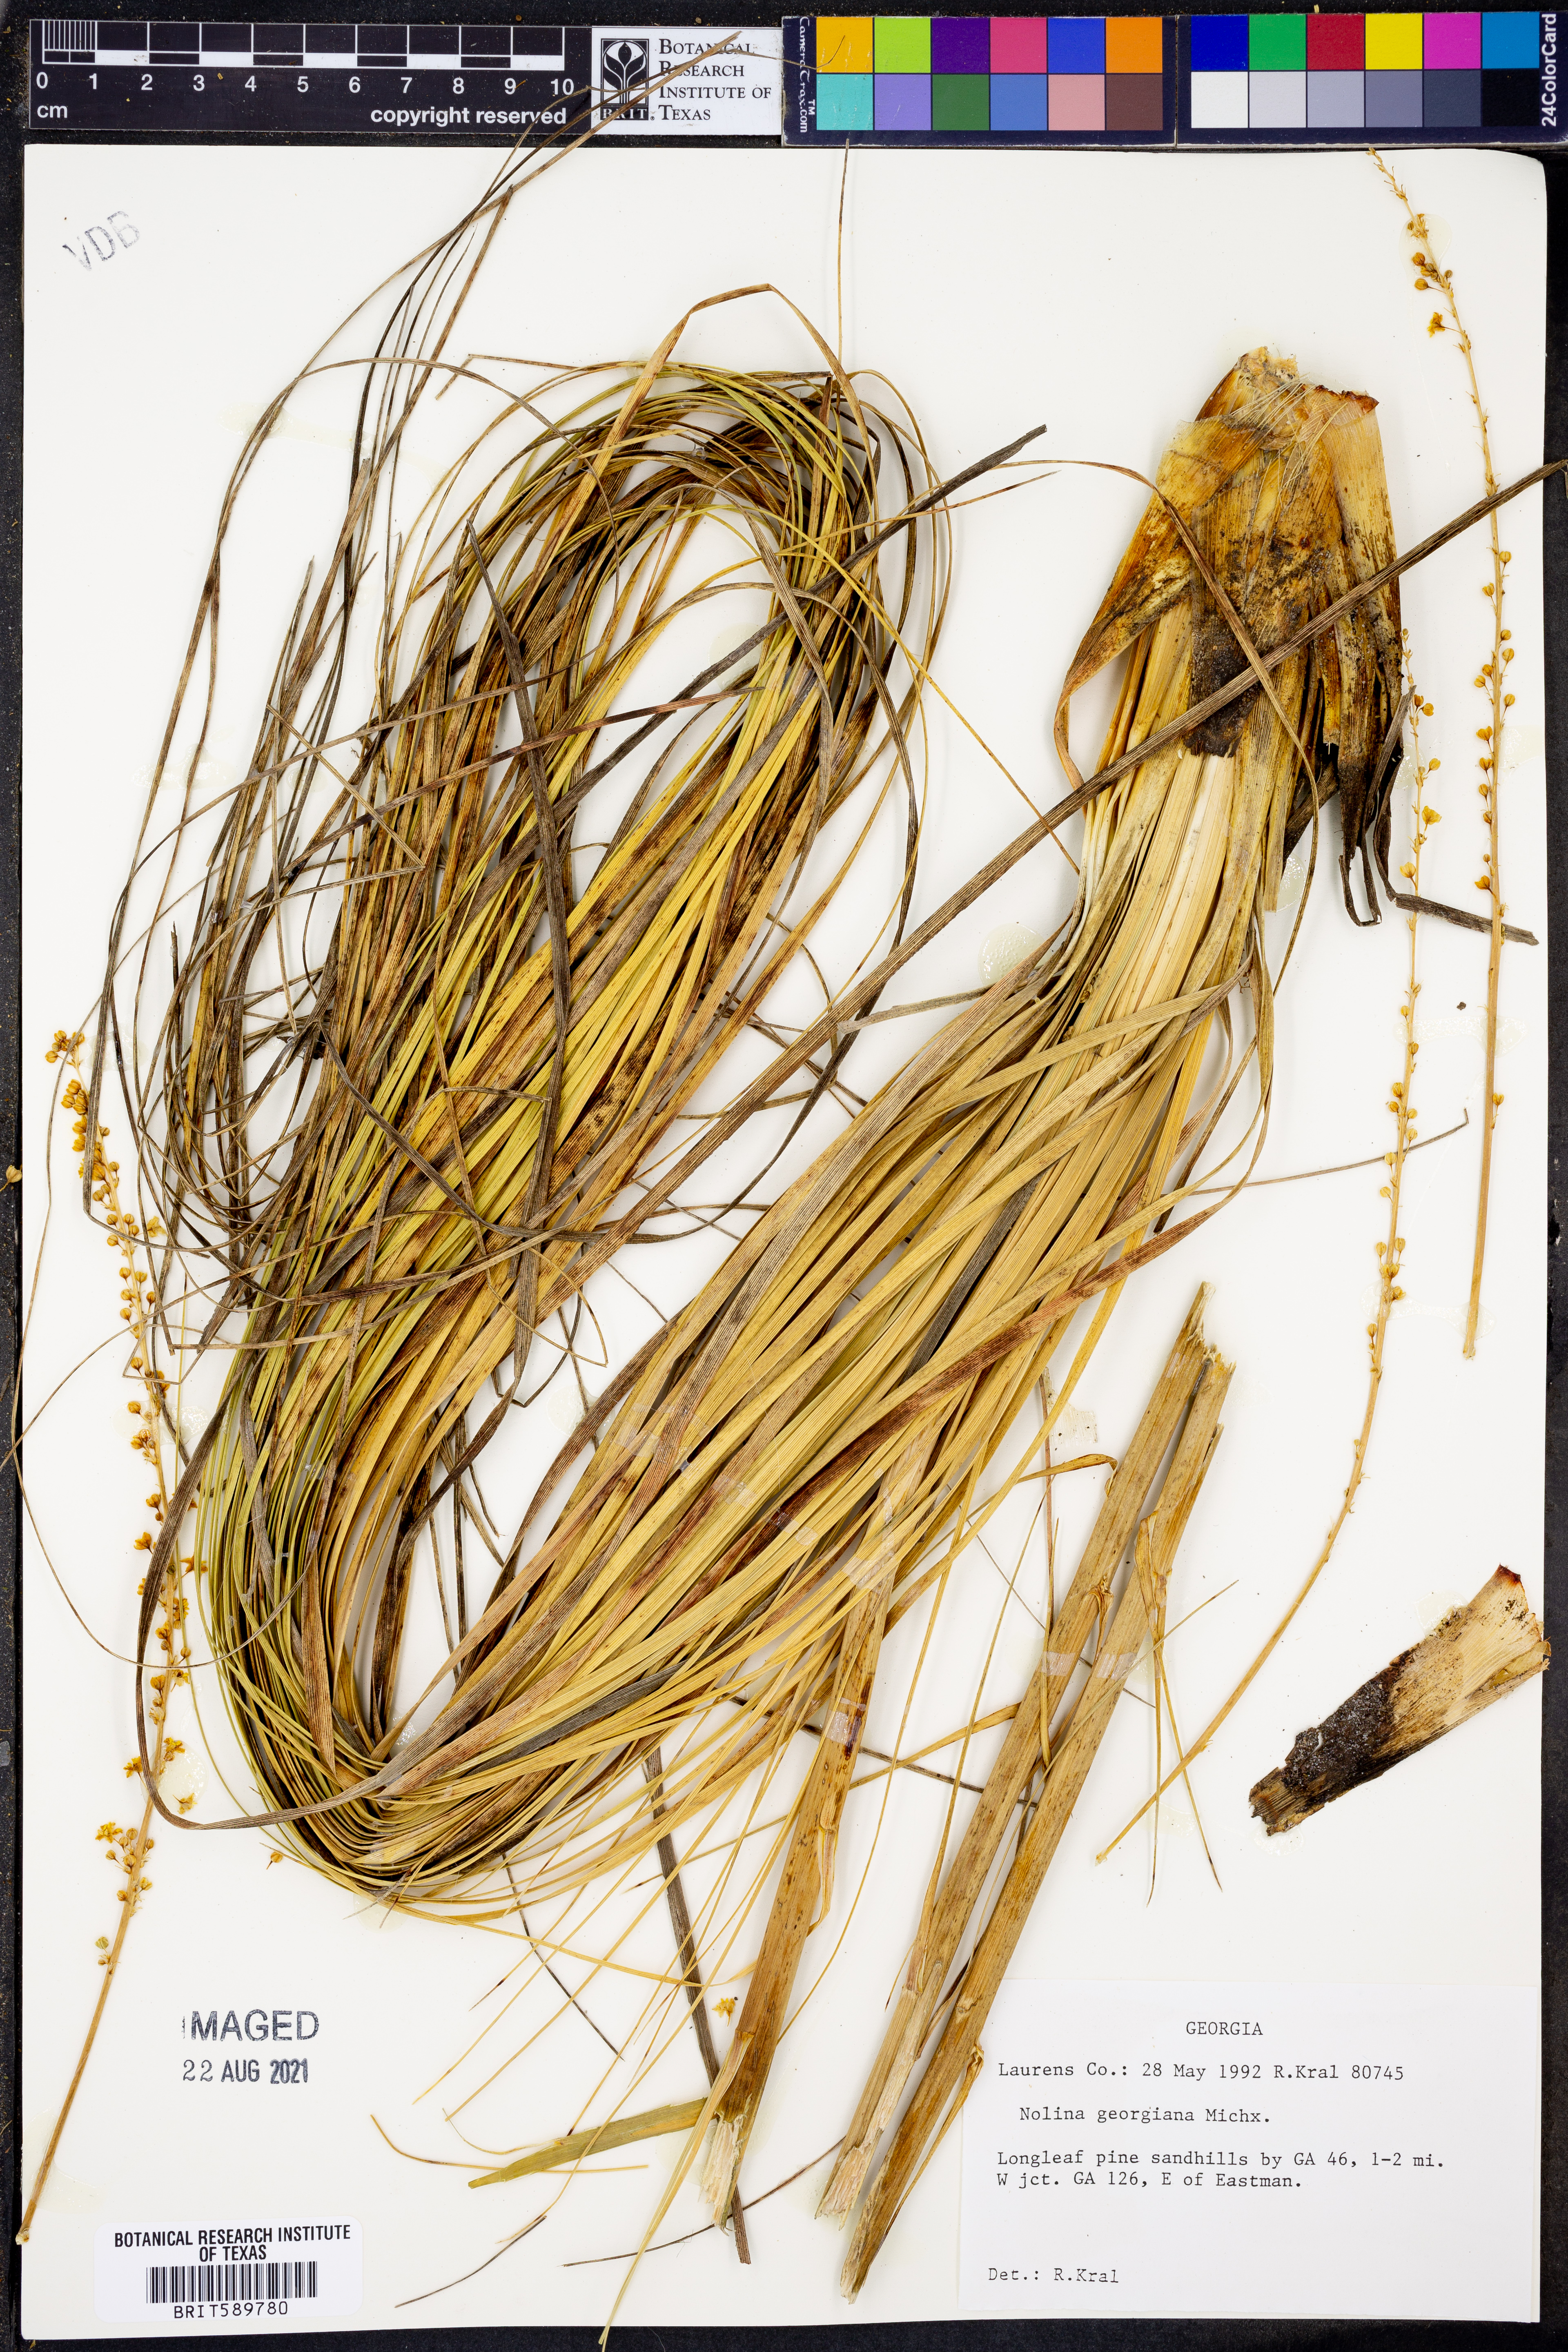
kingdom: Plantae
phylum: Tracheophyta
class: Liliopsida
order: Asparagales
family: Asparagaceae
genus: Nolina
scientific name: Nolina georgiana
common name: Georgia bear-grass
